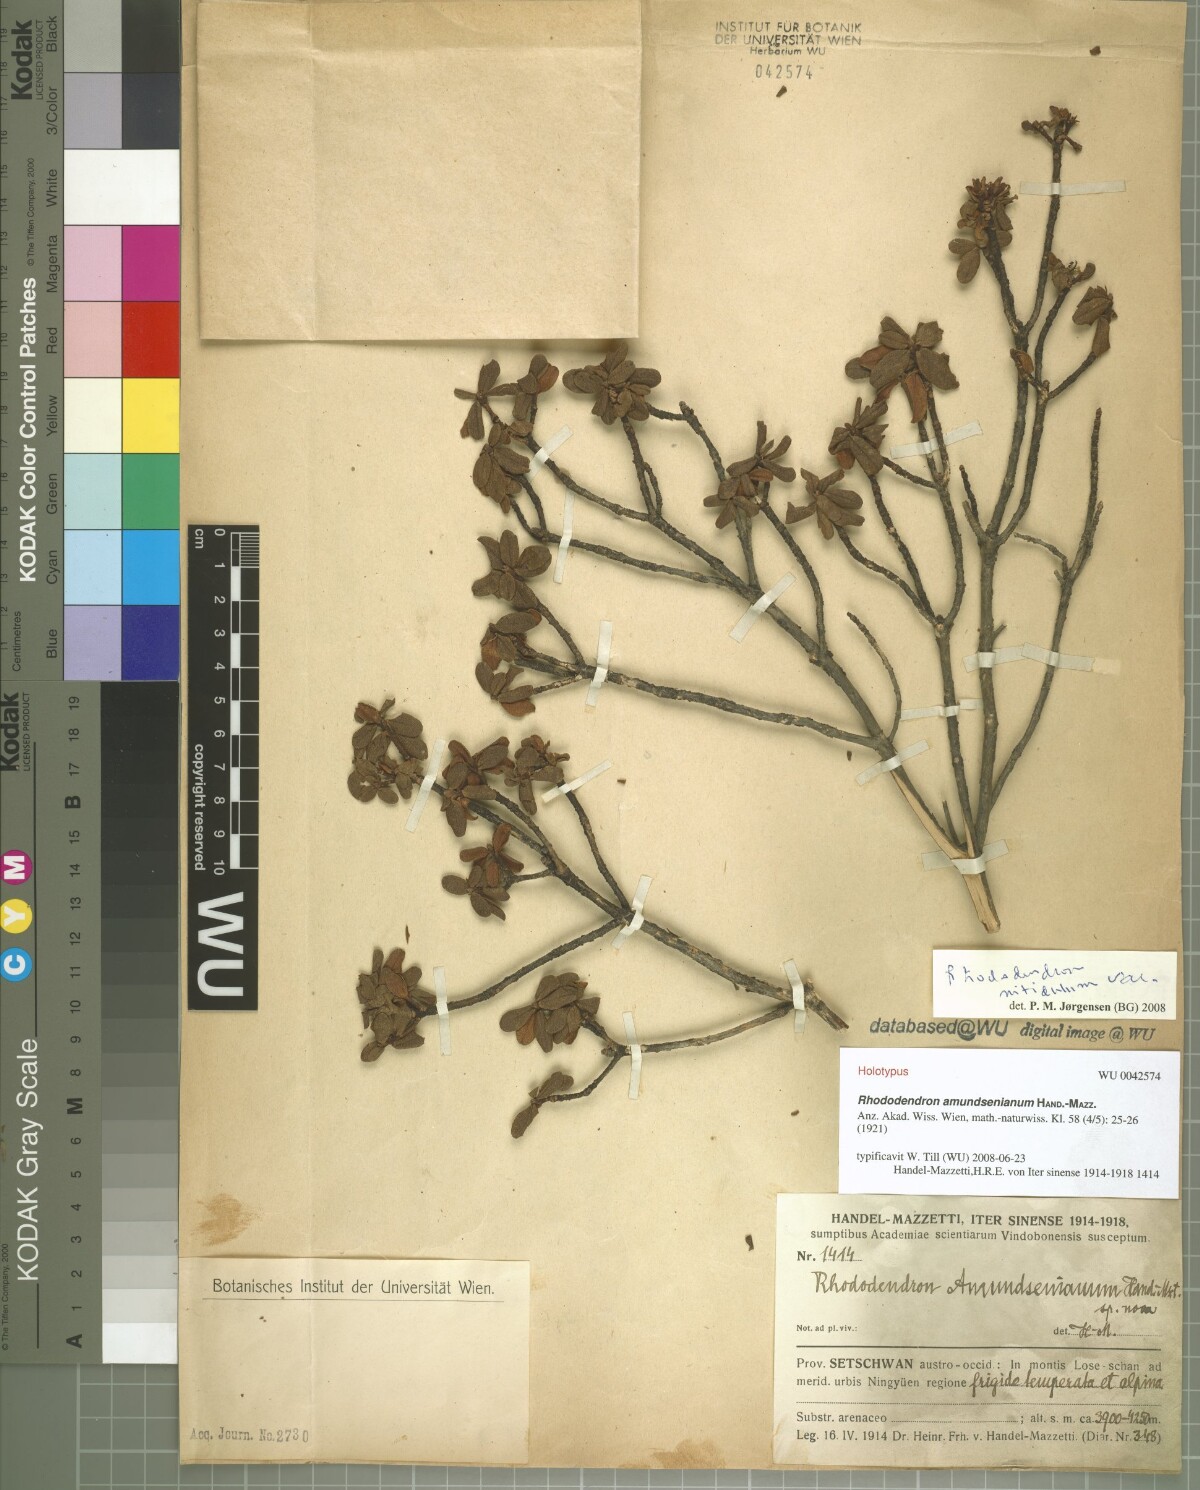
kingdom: Plantae
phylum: Tracheophyta
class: Magnoliopsida
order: Ericales
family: Ericaceae
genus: Rhododendron
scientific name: Rhododendron amundsenianum
